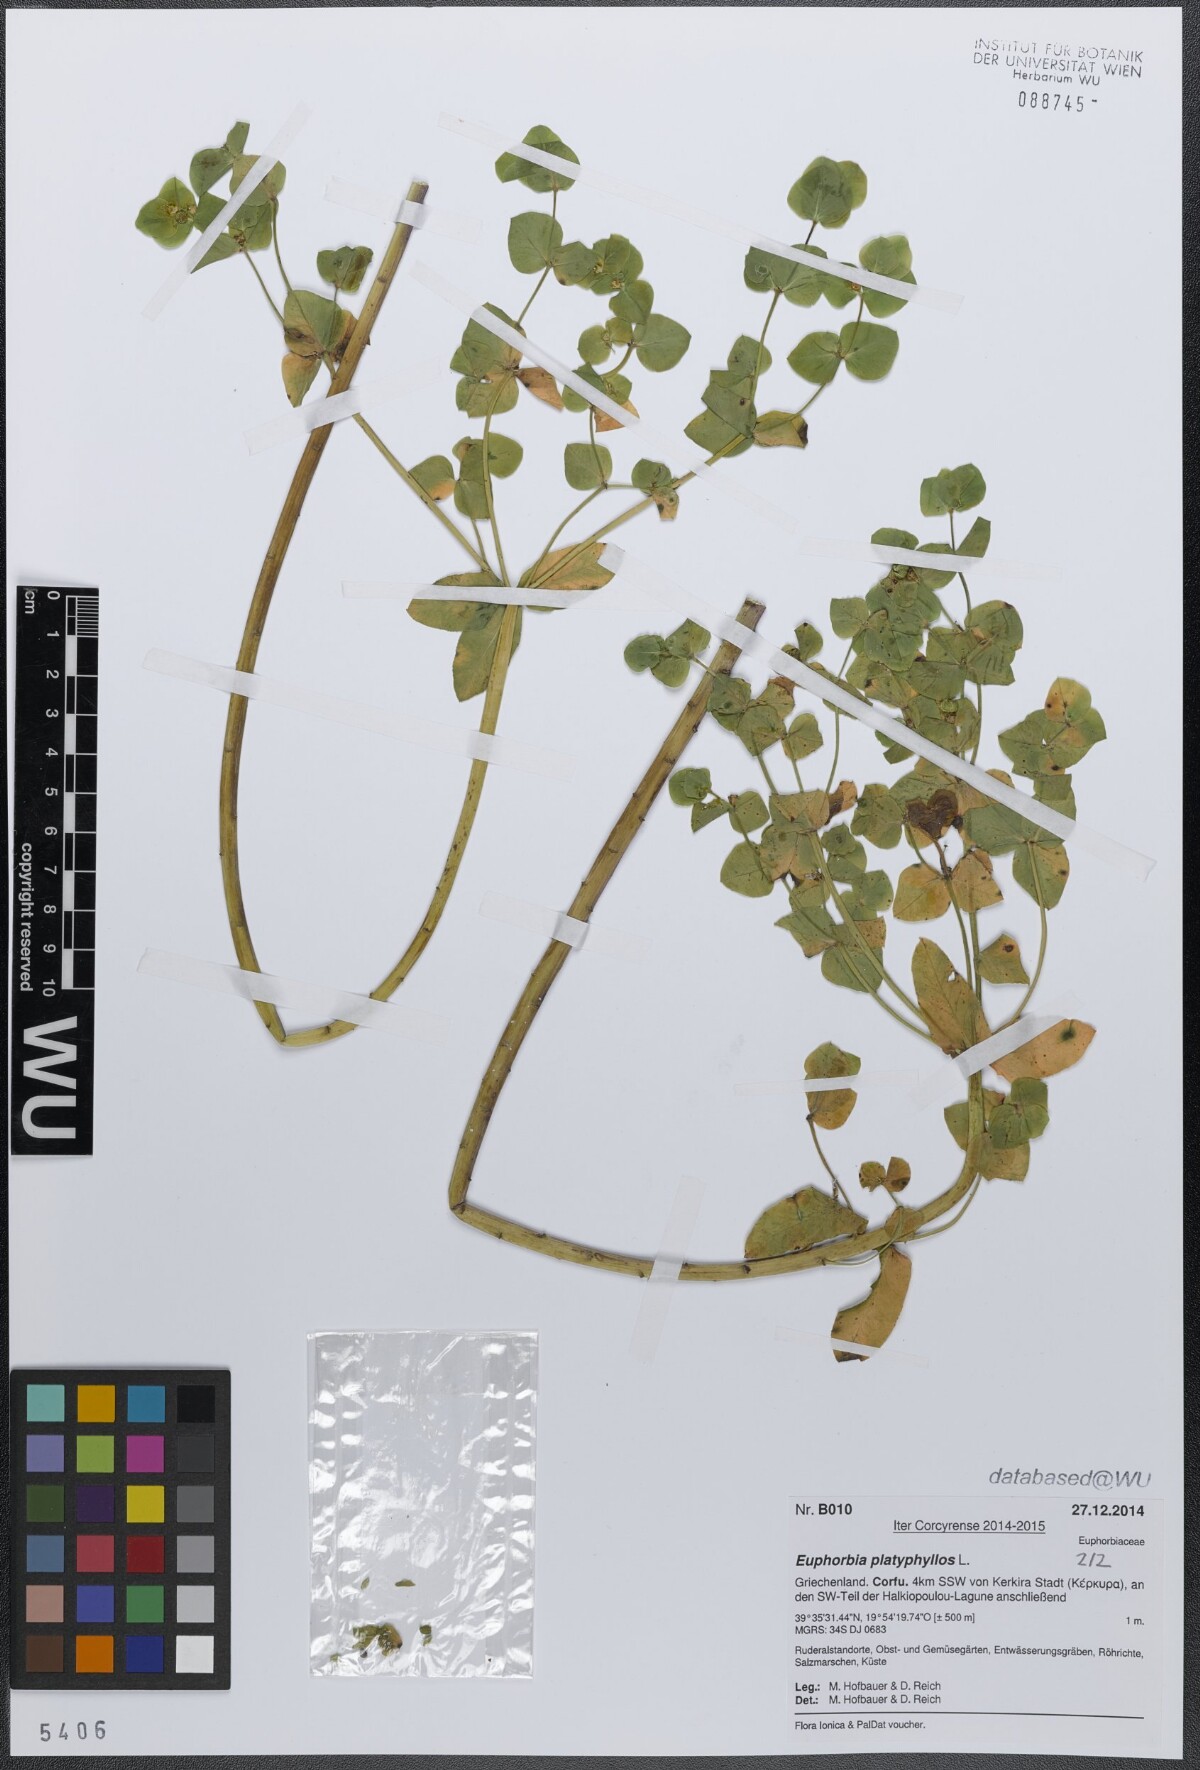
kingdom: Plantae
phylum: Tracheophyta
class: Magnoliopsida
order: Malpighiales
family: Euphorbiaceae
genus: Euphorbia
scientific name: Euphorbia platyphyllos
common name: Broad-leaved spurge
